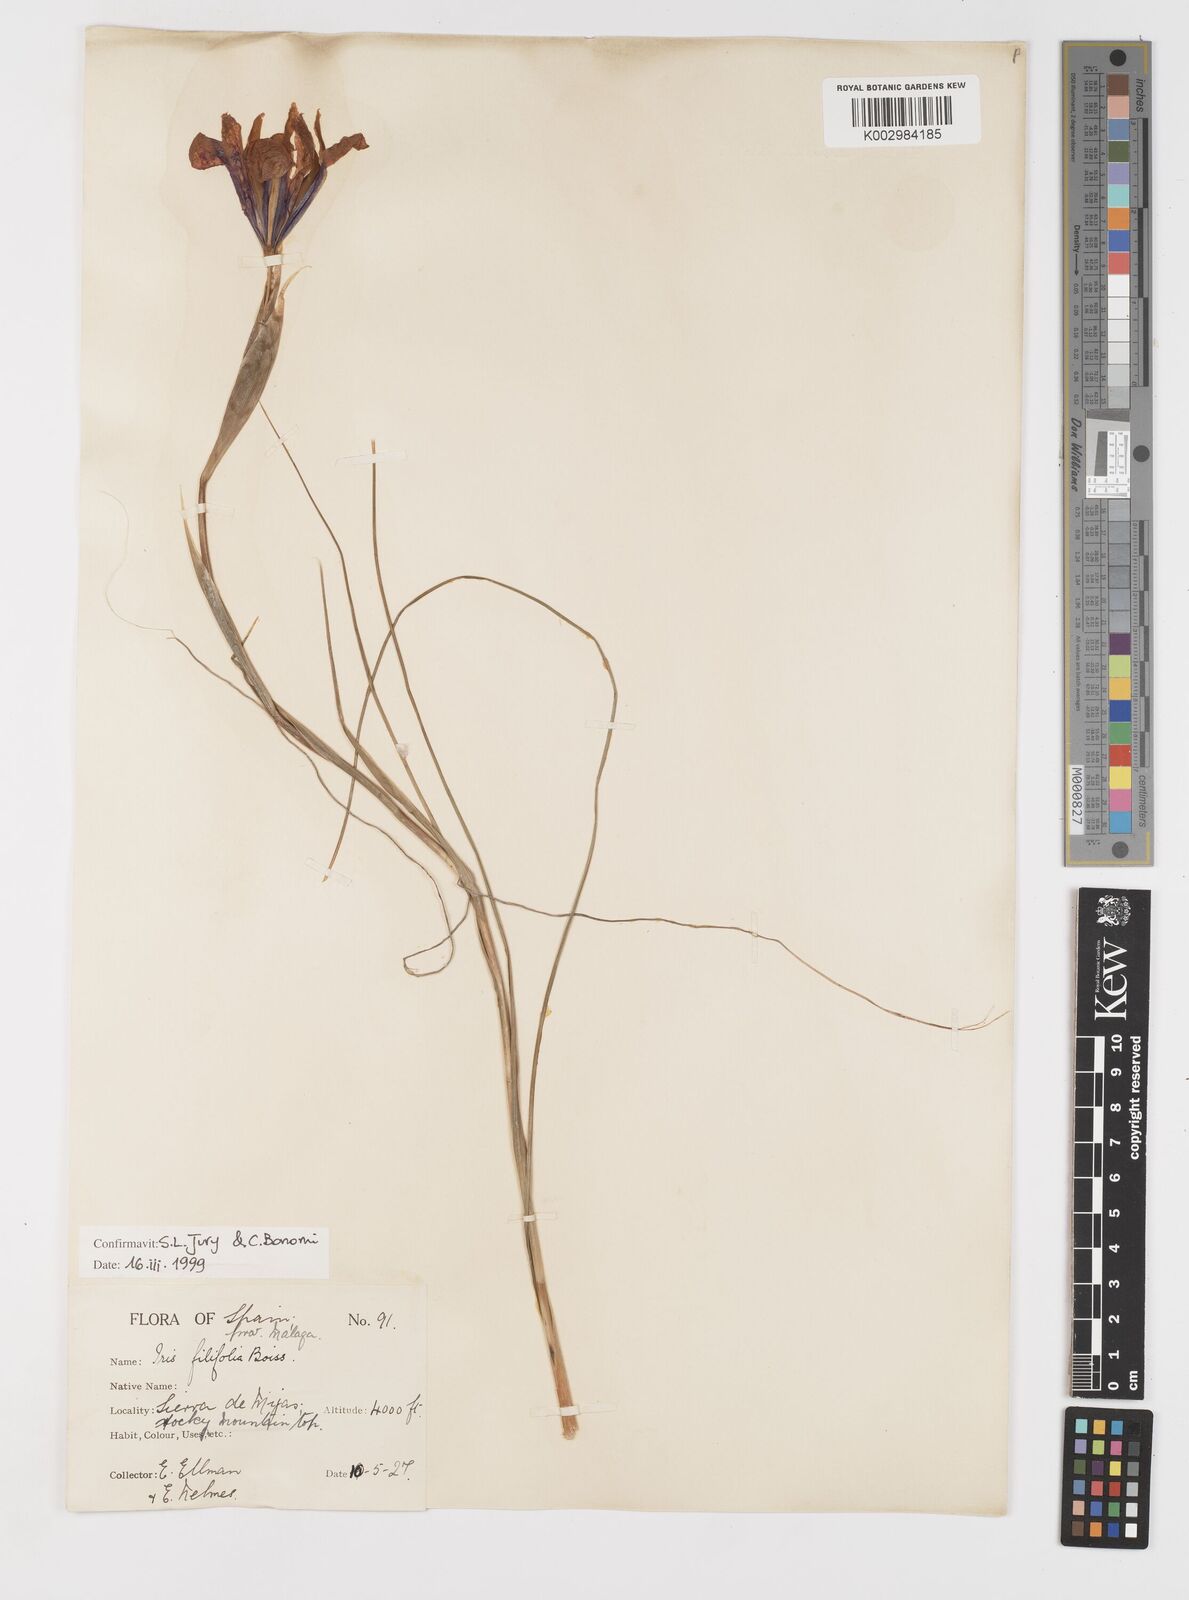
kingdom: Plantae
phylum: Tracheophyta
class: Liliopsida
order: Asparagales
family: Iridaceae
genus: Iris
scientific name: Iris filifolia
